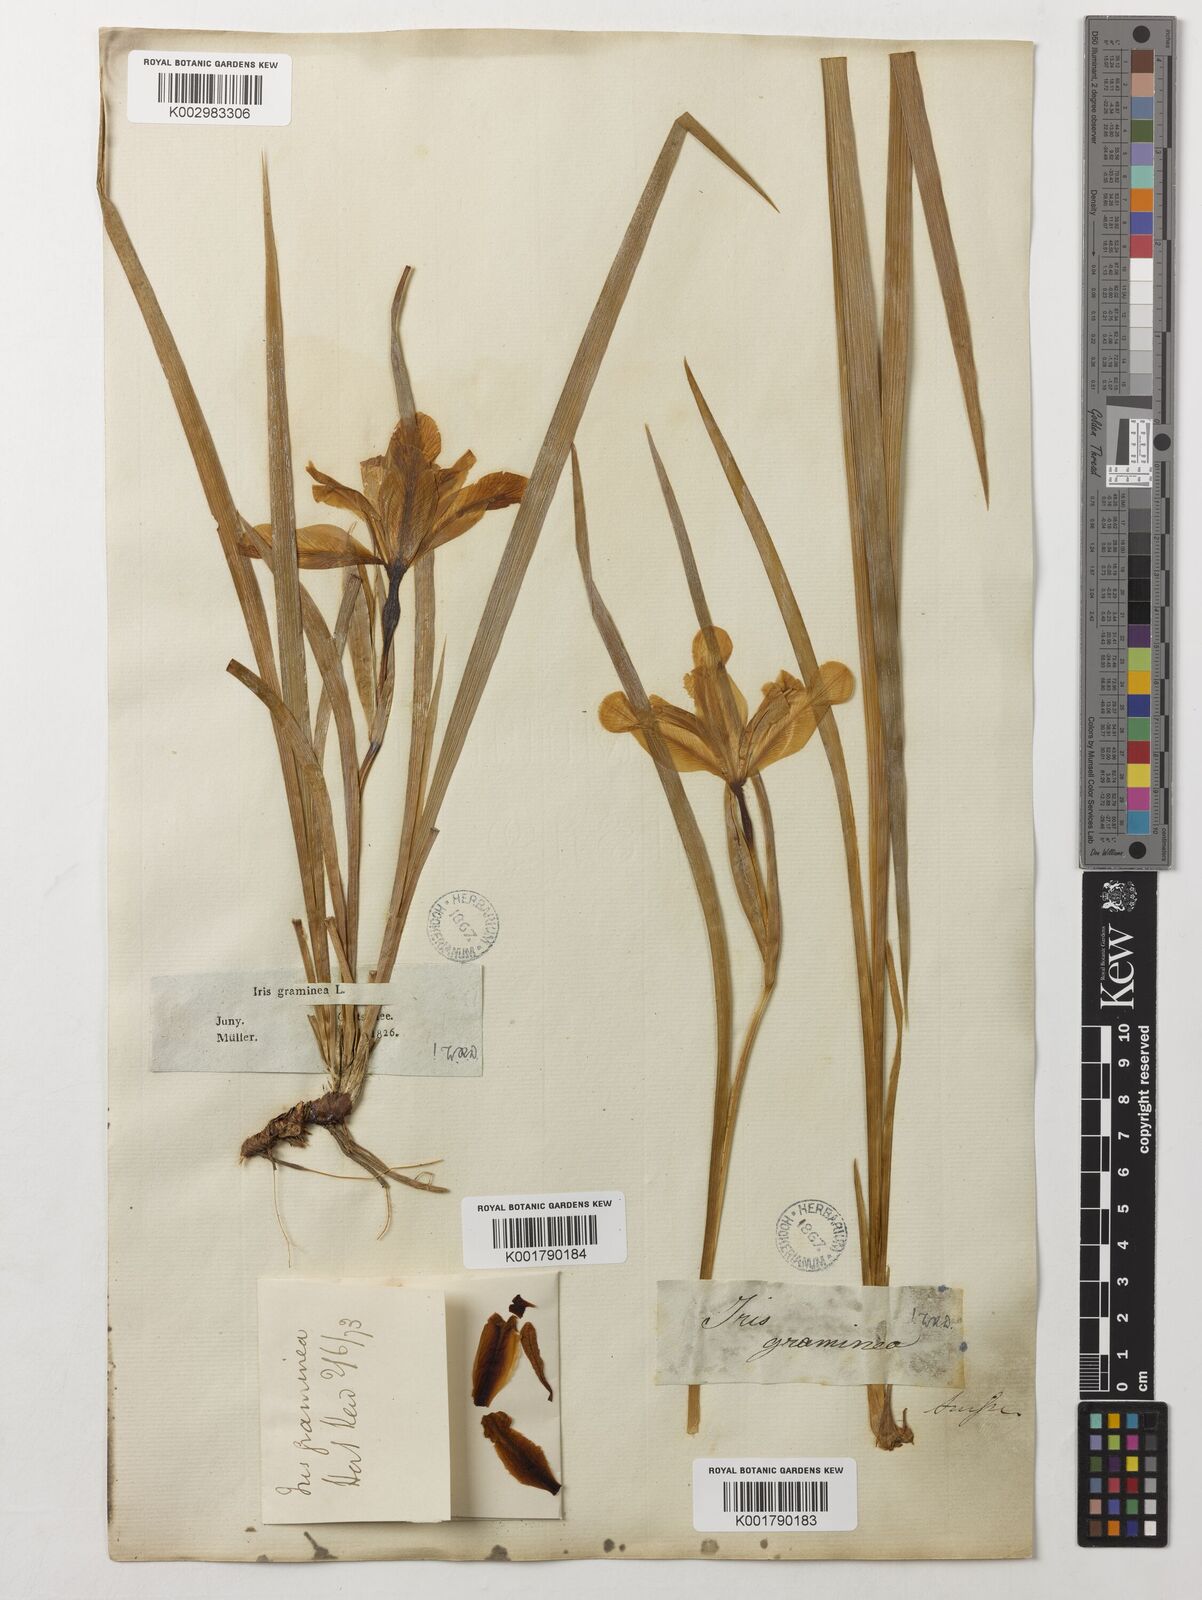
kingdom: Plantae
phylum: Tracheophyta
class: Liliopsida
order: Asparagales
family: Iridaceae
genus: Iris
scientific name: Iris graminea
